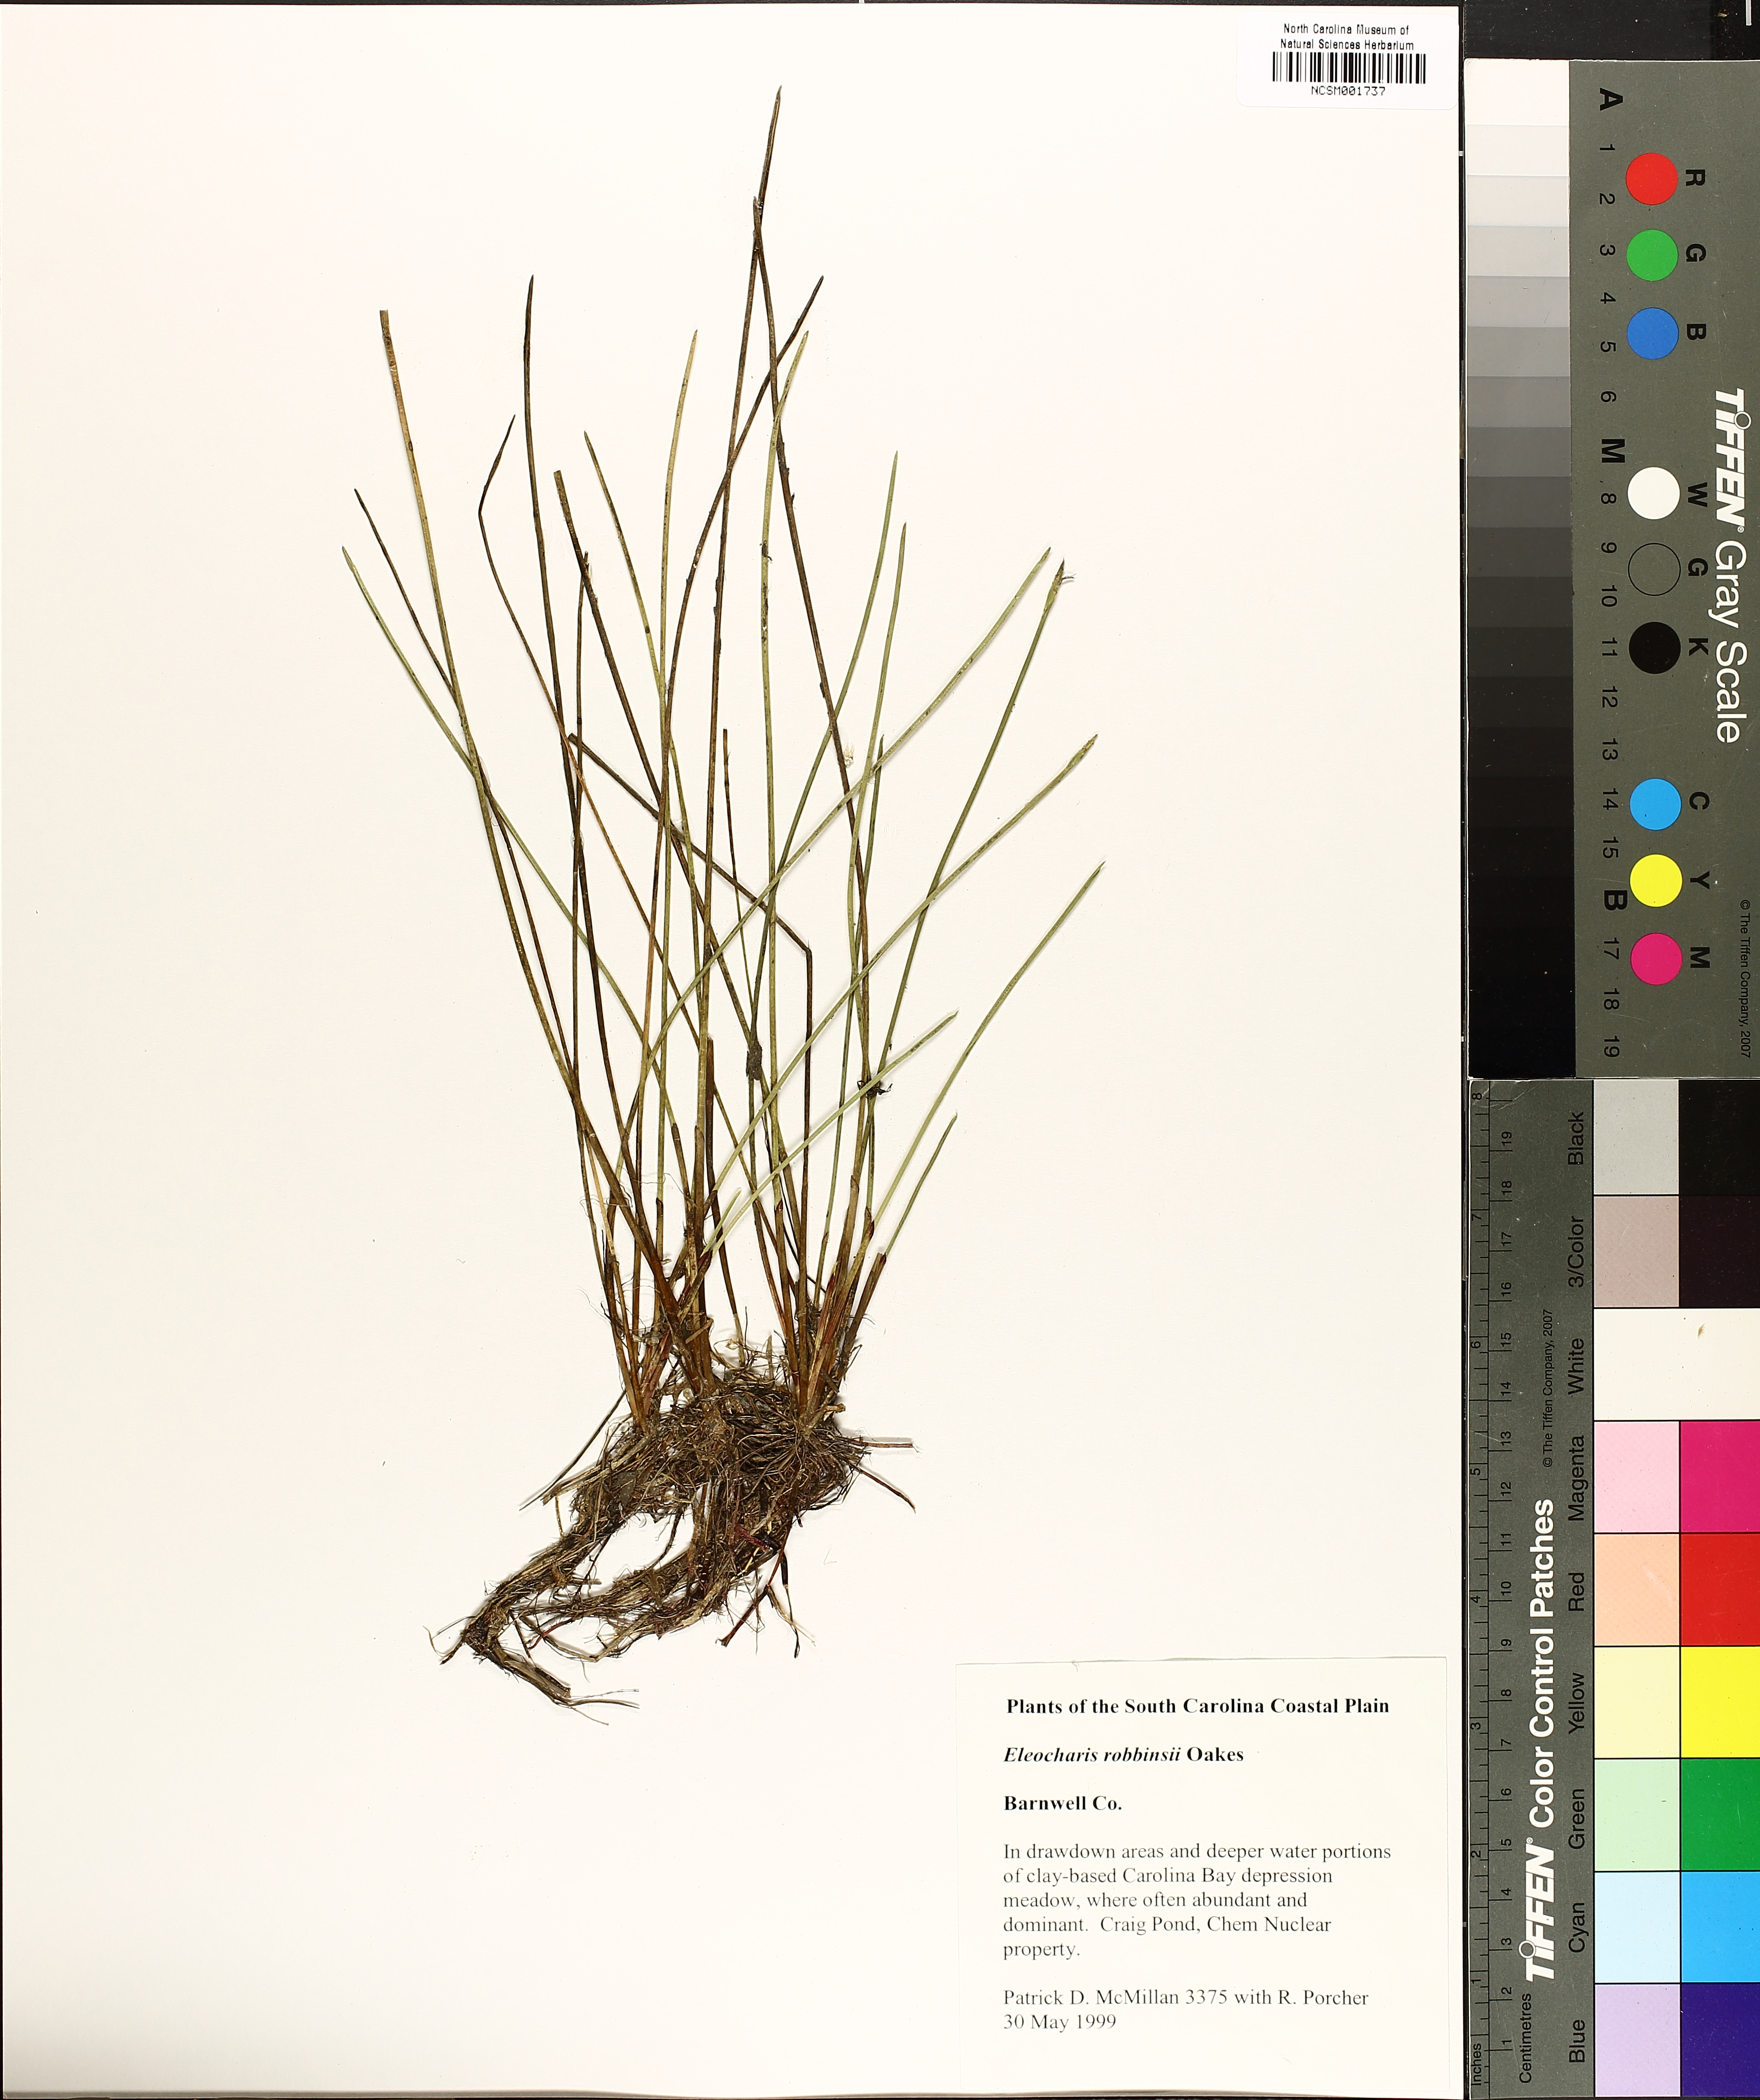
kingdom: Plantae
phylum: Tracheophyta
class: Liliopsida
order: Poales
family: Cyperaceae
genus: Eleocharis
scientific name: Eleocharis robbinsii
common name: Robbins' spikerush
